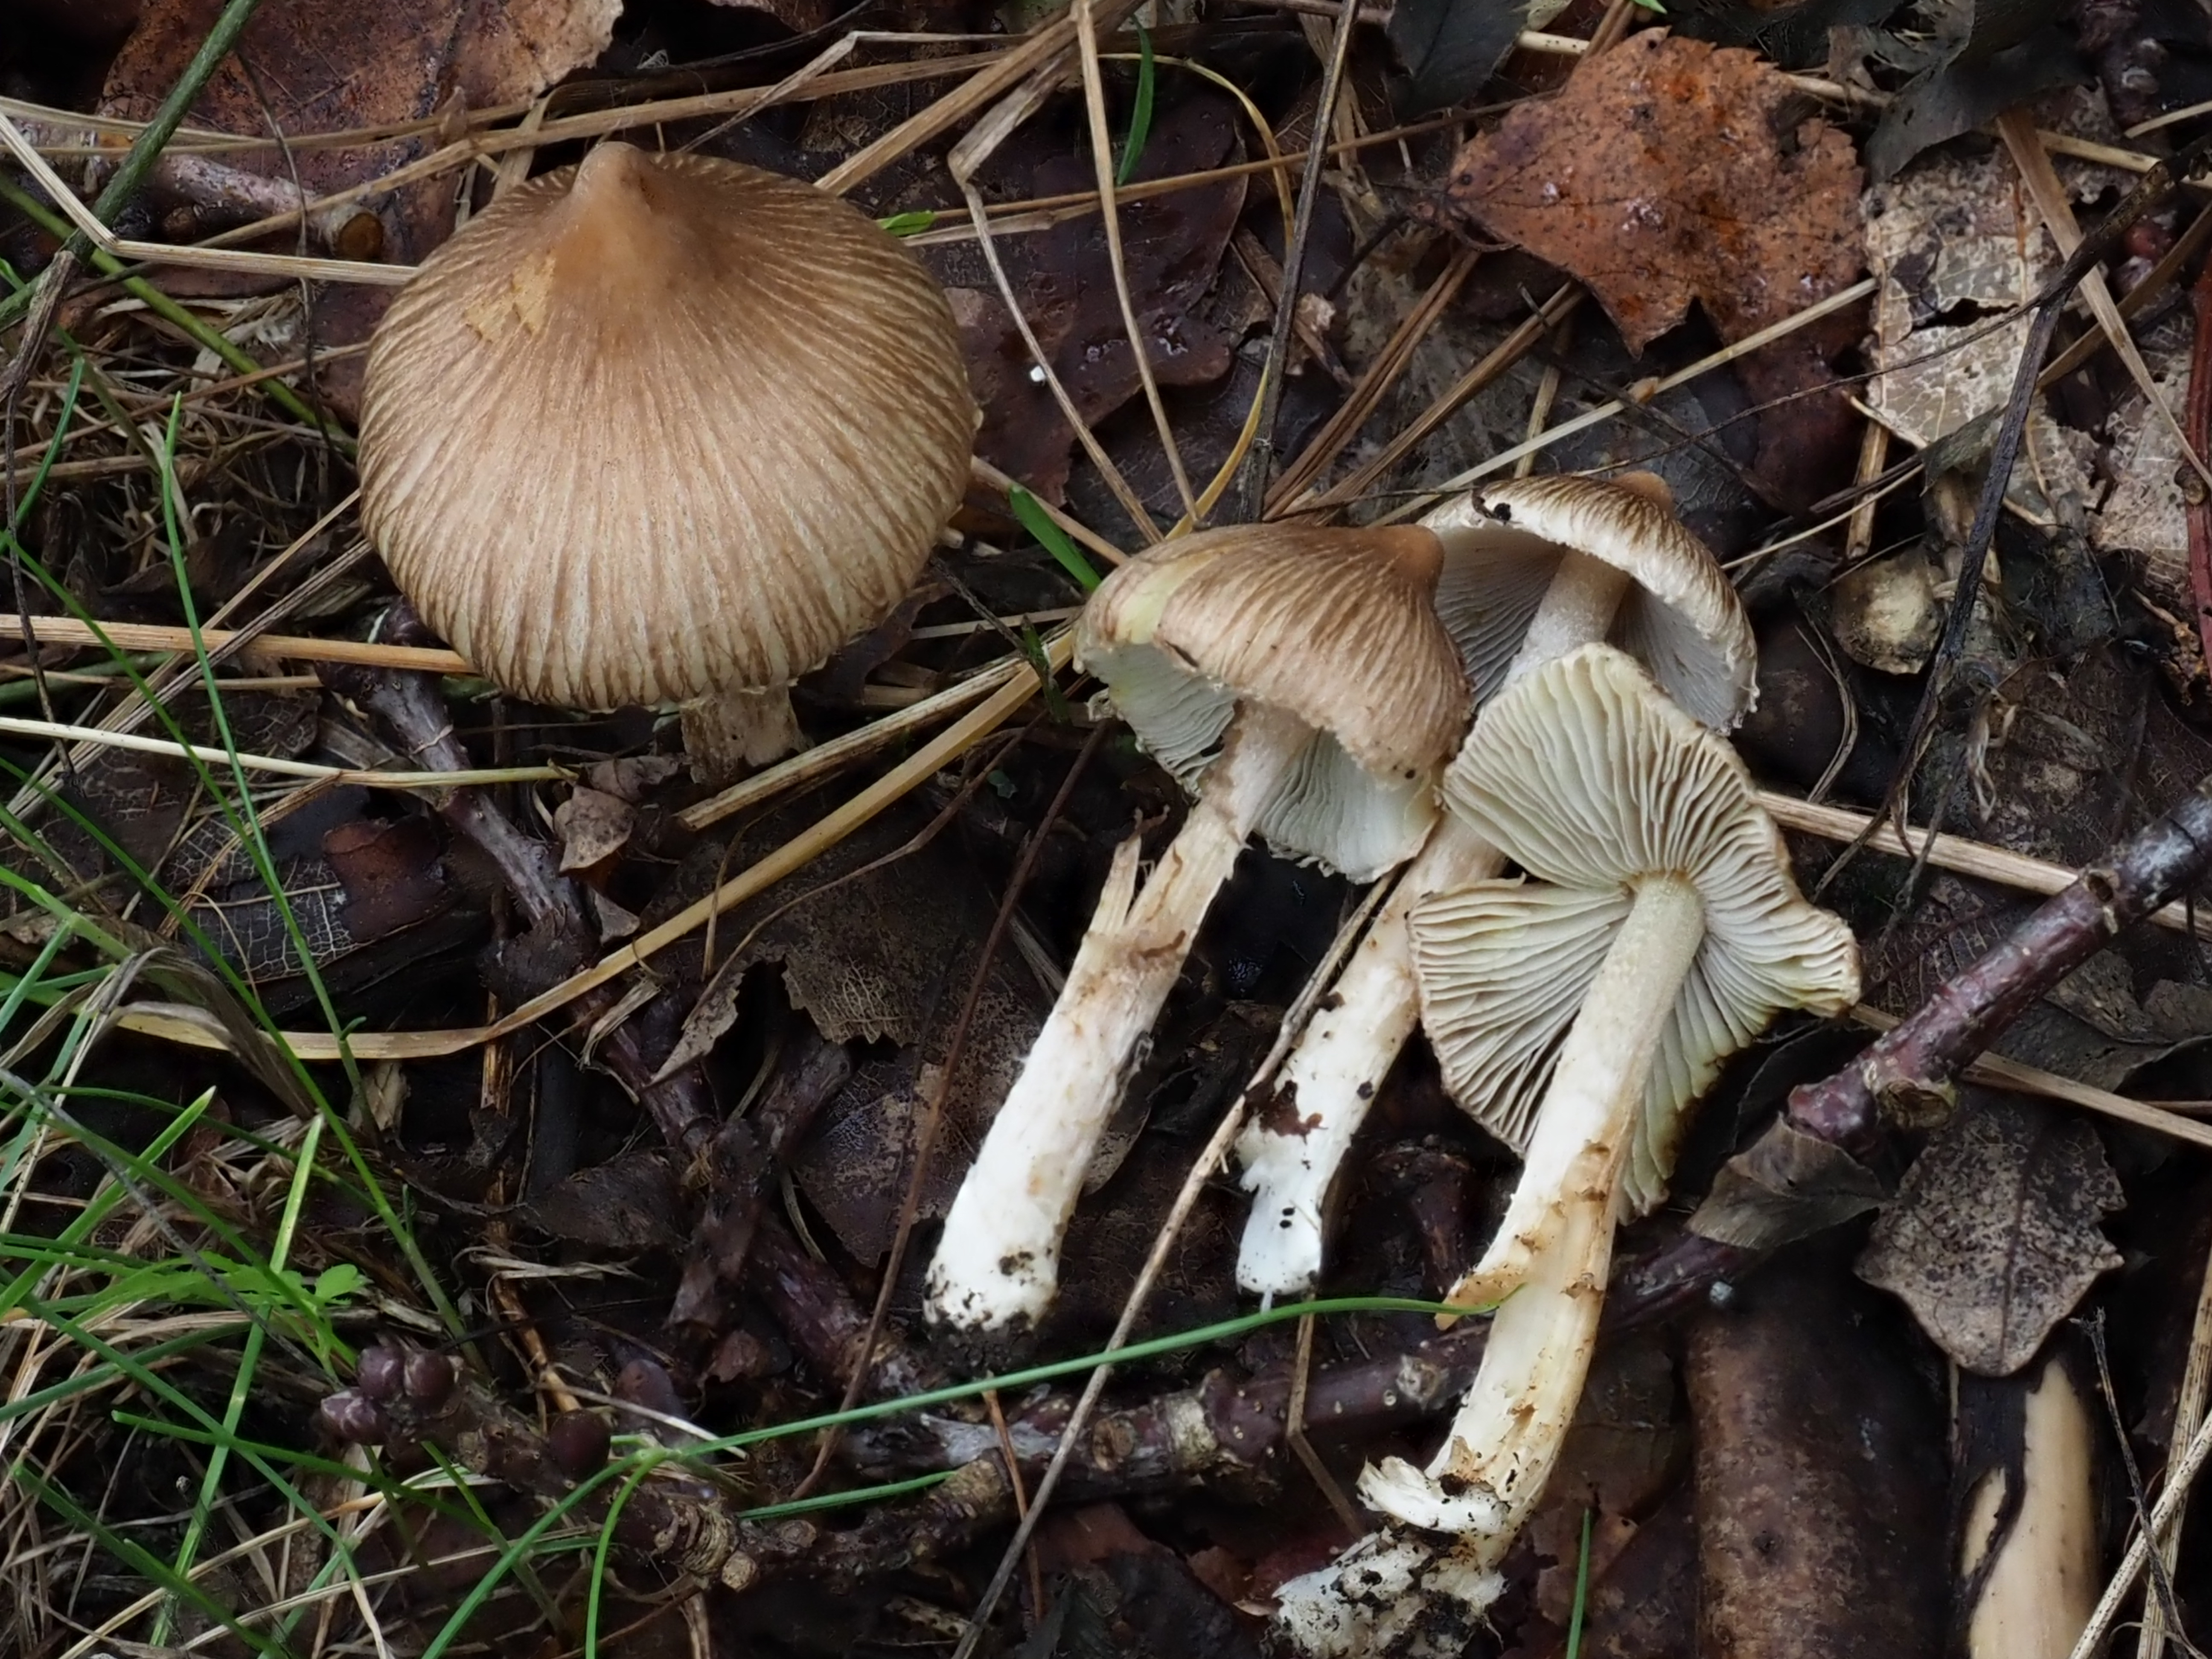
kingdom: Fungi
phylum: Basidiomycota
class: Agaricomycetes
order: Agaricales
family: Inocybaceae
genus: Pseudosperma
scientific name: Pseudosperma rimosum
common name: Split fibrecap
